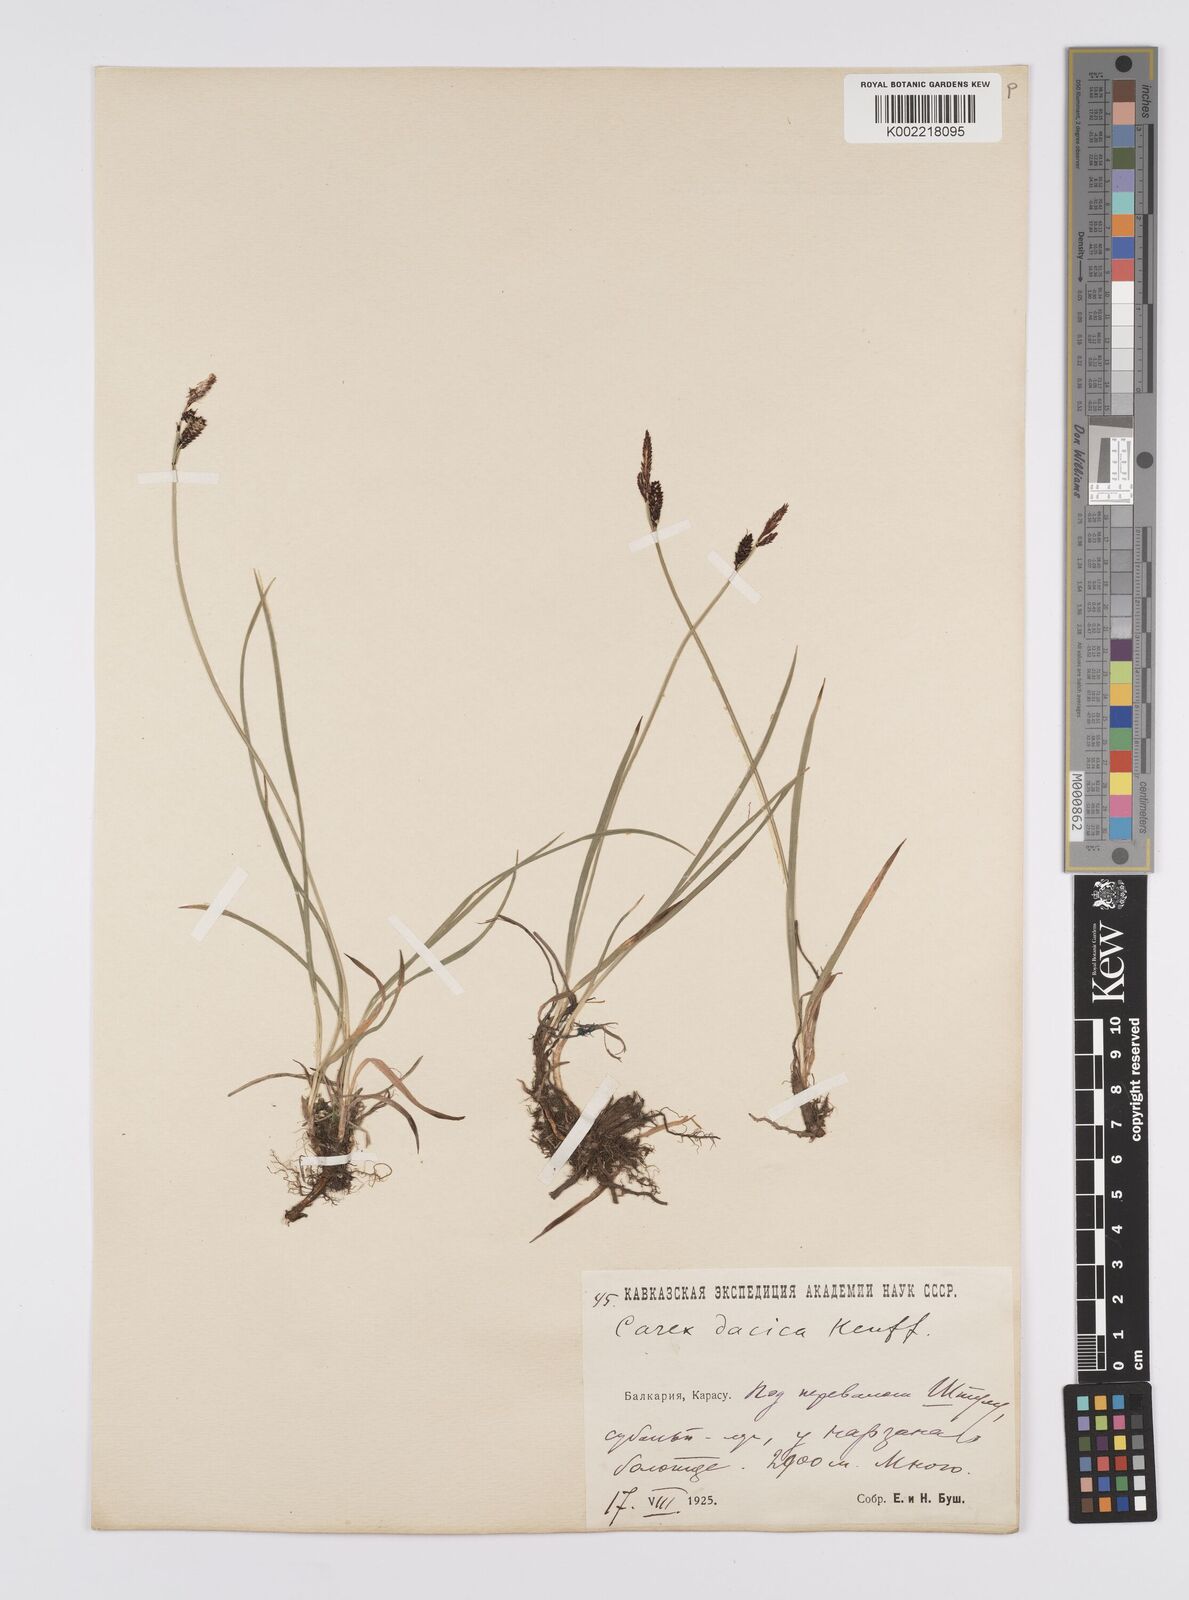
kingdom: Plantae
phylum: Tracheophyta
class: Liliopsida
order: Poales
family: Cyperaceae
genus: Carex
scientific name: Carex dacica
